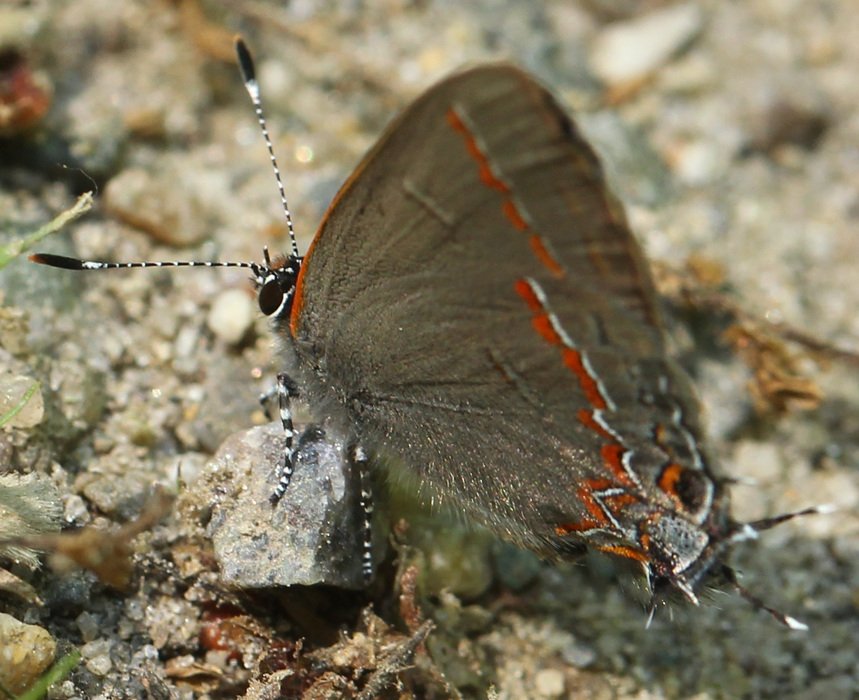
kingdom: Animalia
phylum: Arthropoda
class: Insecta
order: Lepidoptera
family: Lycaenidae
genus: Calycopis
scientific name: Calycopis cecrops
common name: Red-banded Hairstreak
